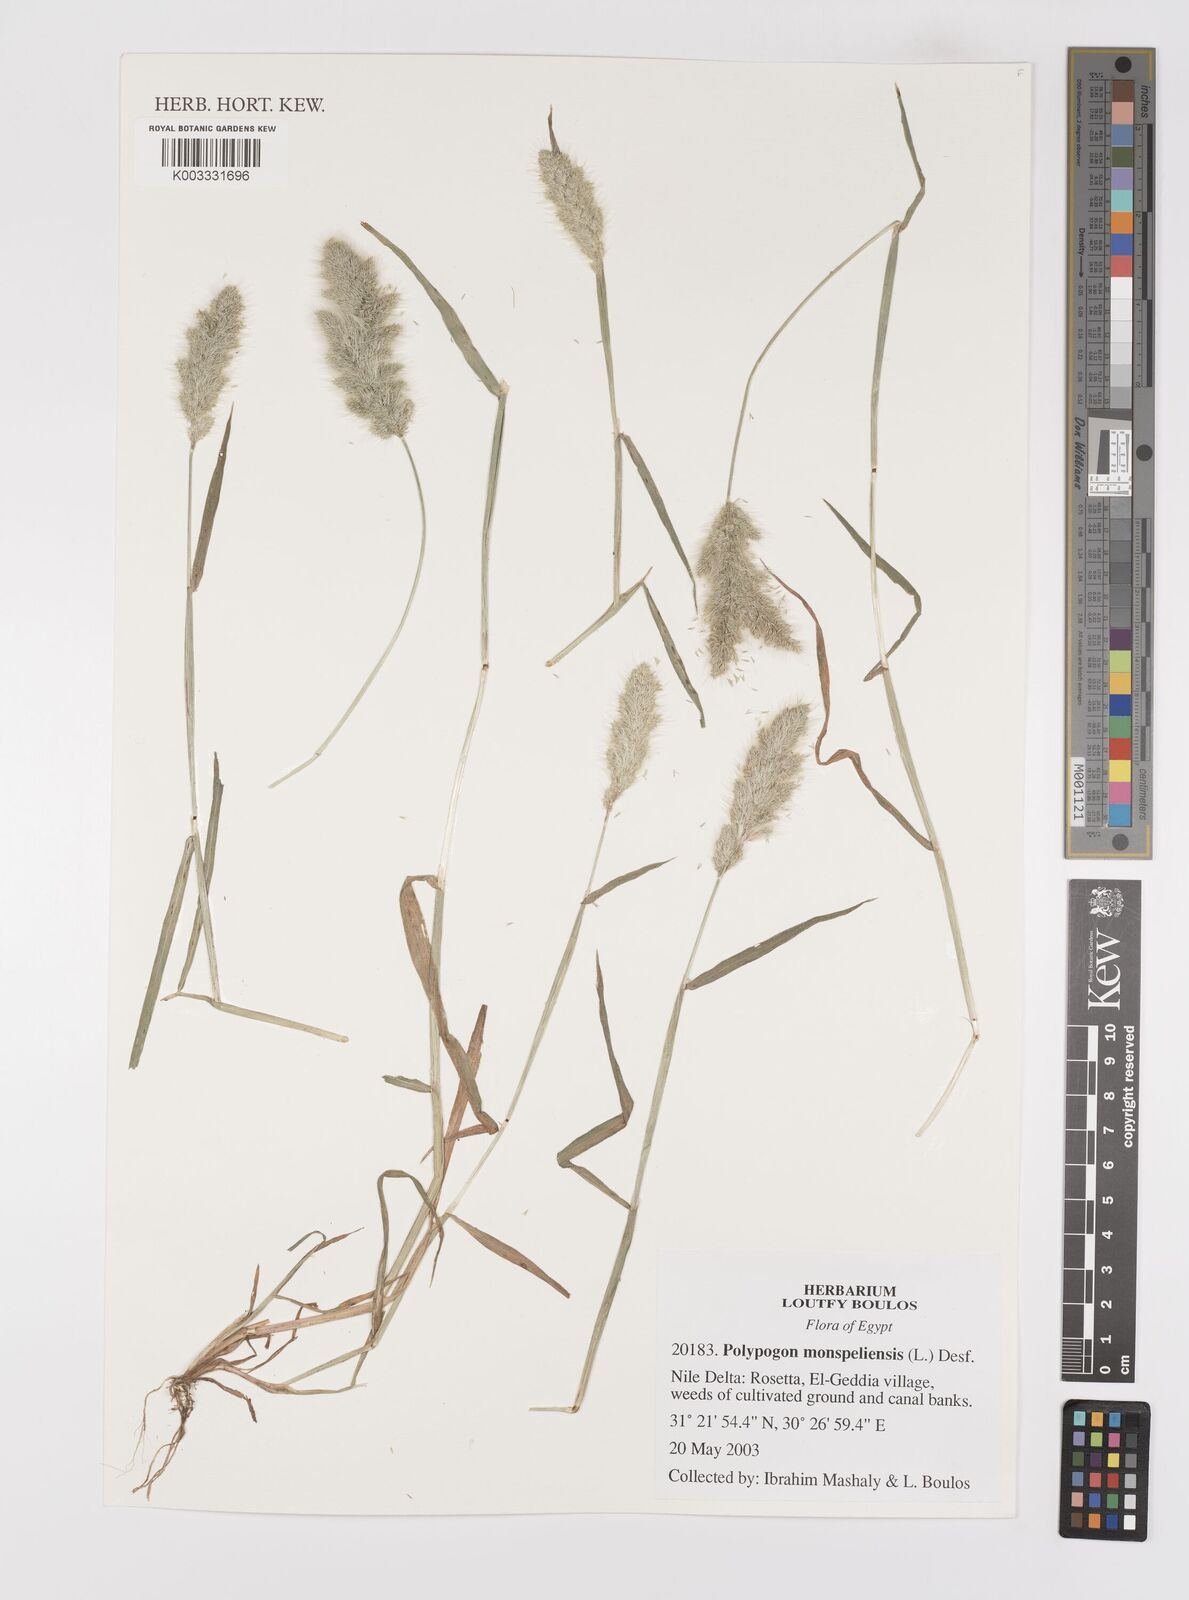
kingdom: Plantae
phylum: Tracheophyta
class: Liliopsida
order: Poales
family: Poaceae
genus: Polypogon
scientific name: Polypogon monspeliensis
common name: Annual rabbitsfoot grass
